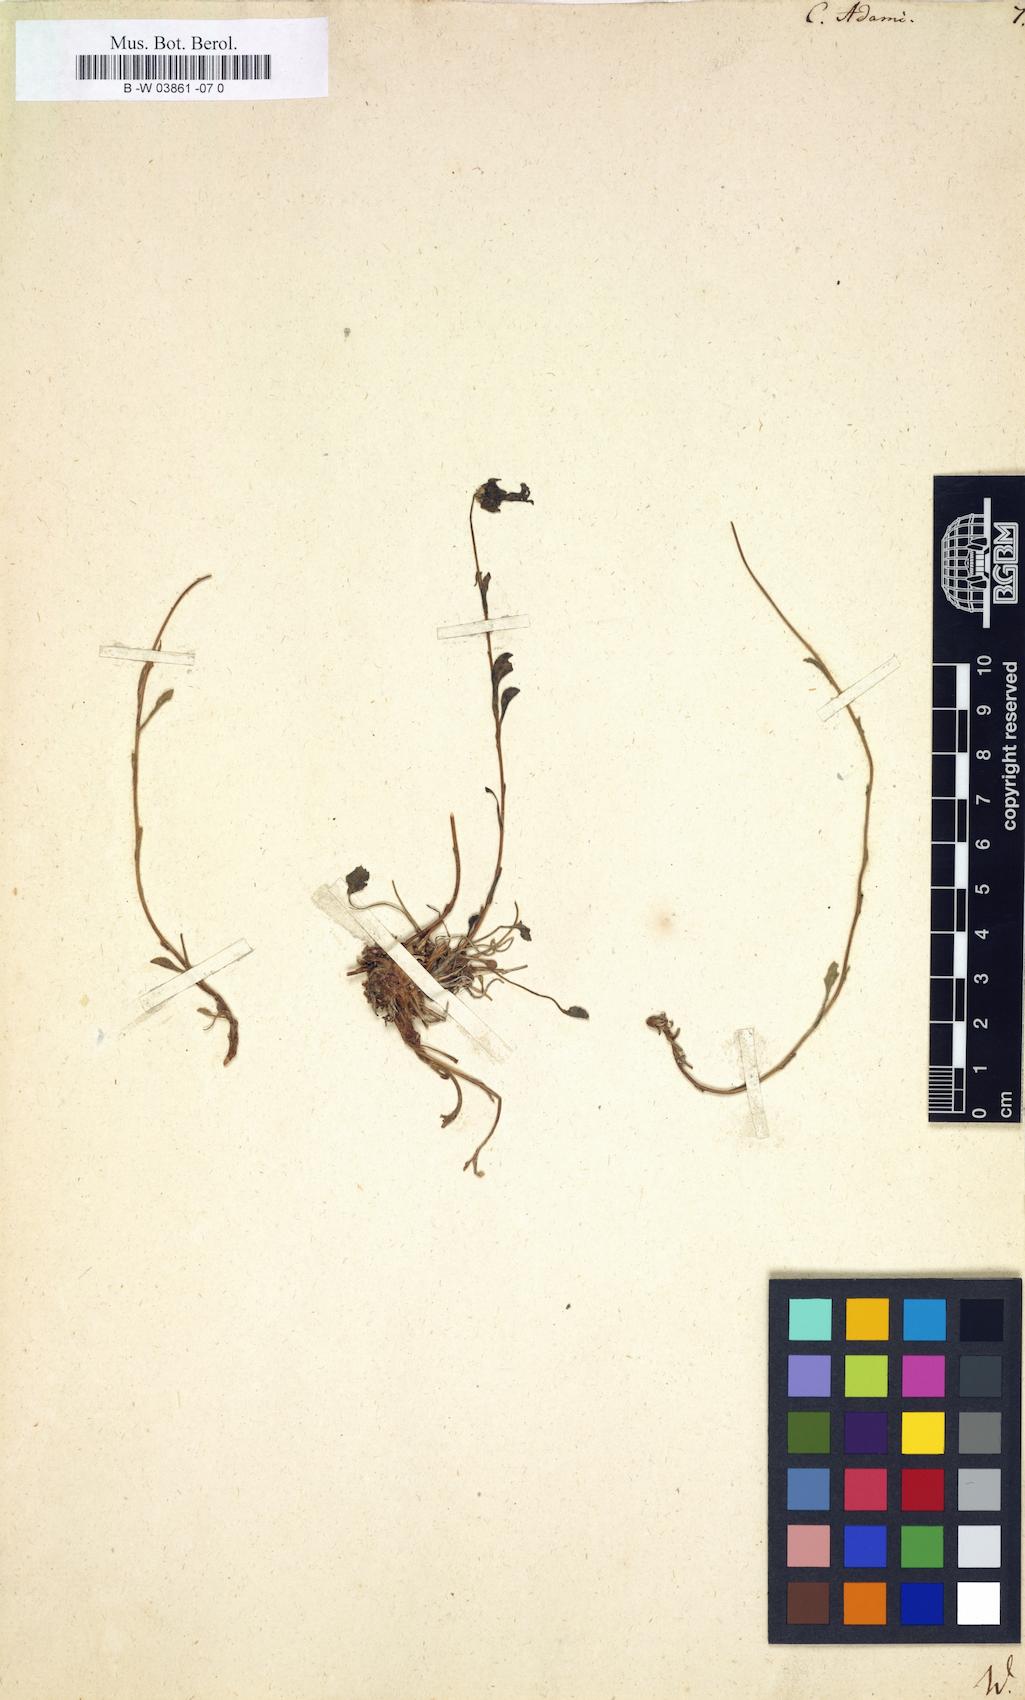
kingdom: Plantae
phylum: Tracheophyta
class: Magnoliopsida
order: Asterales
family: Campanulaceae
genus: Campanula
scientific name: Campanula bellidifolia
